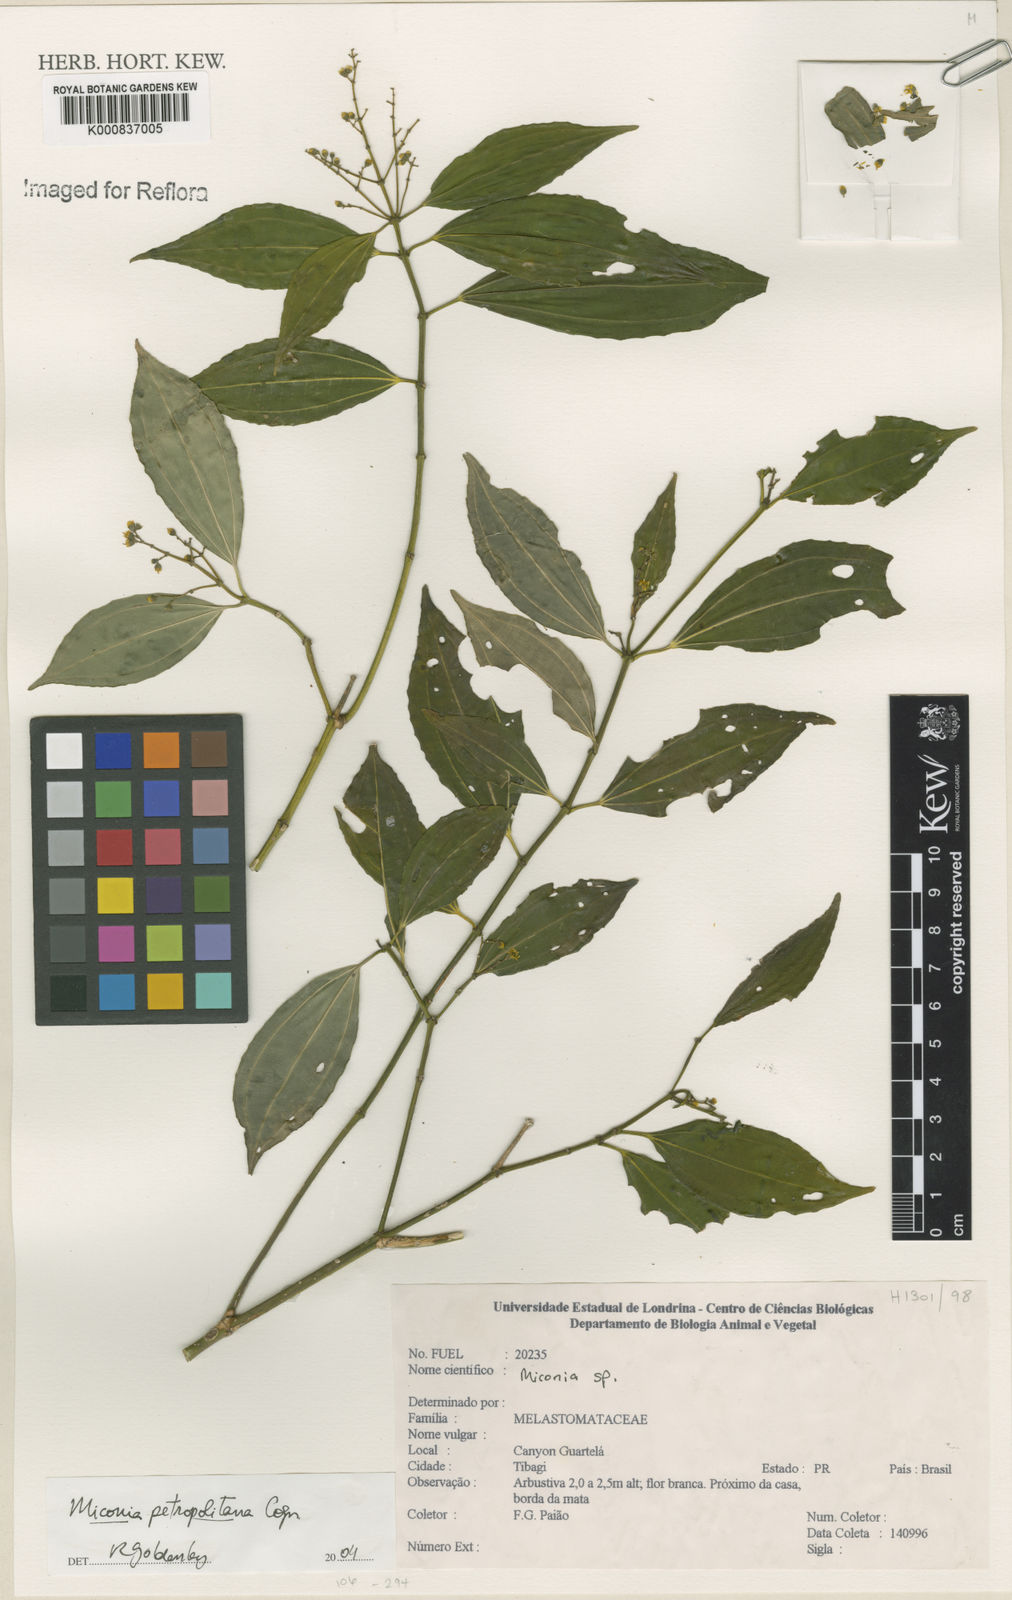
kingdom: Plantae
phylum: Tracheophyta
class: Magnoliopsida
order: Myrtales
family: Melastomataceae
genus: Miconia
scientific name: Miconia petropolitana
